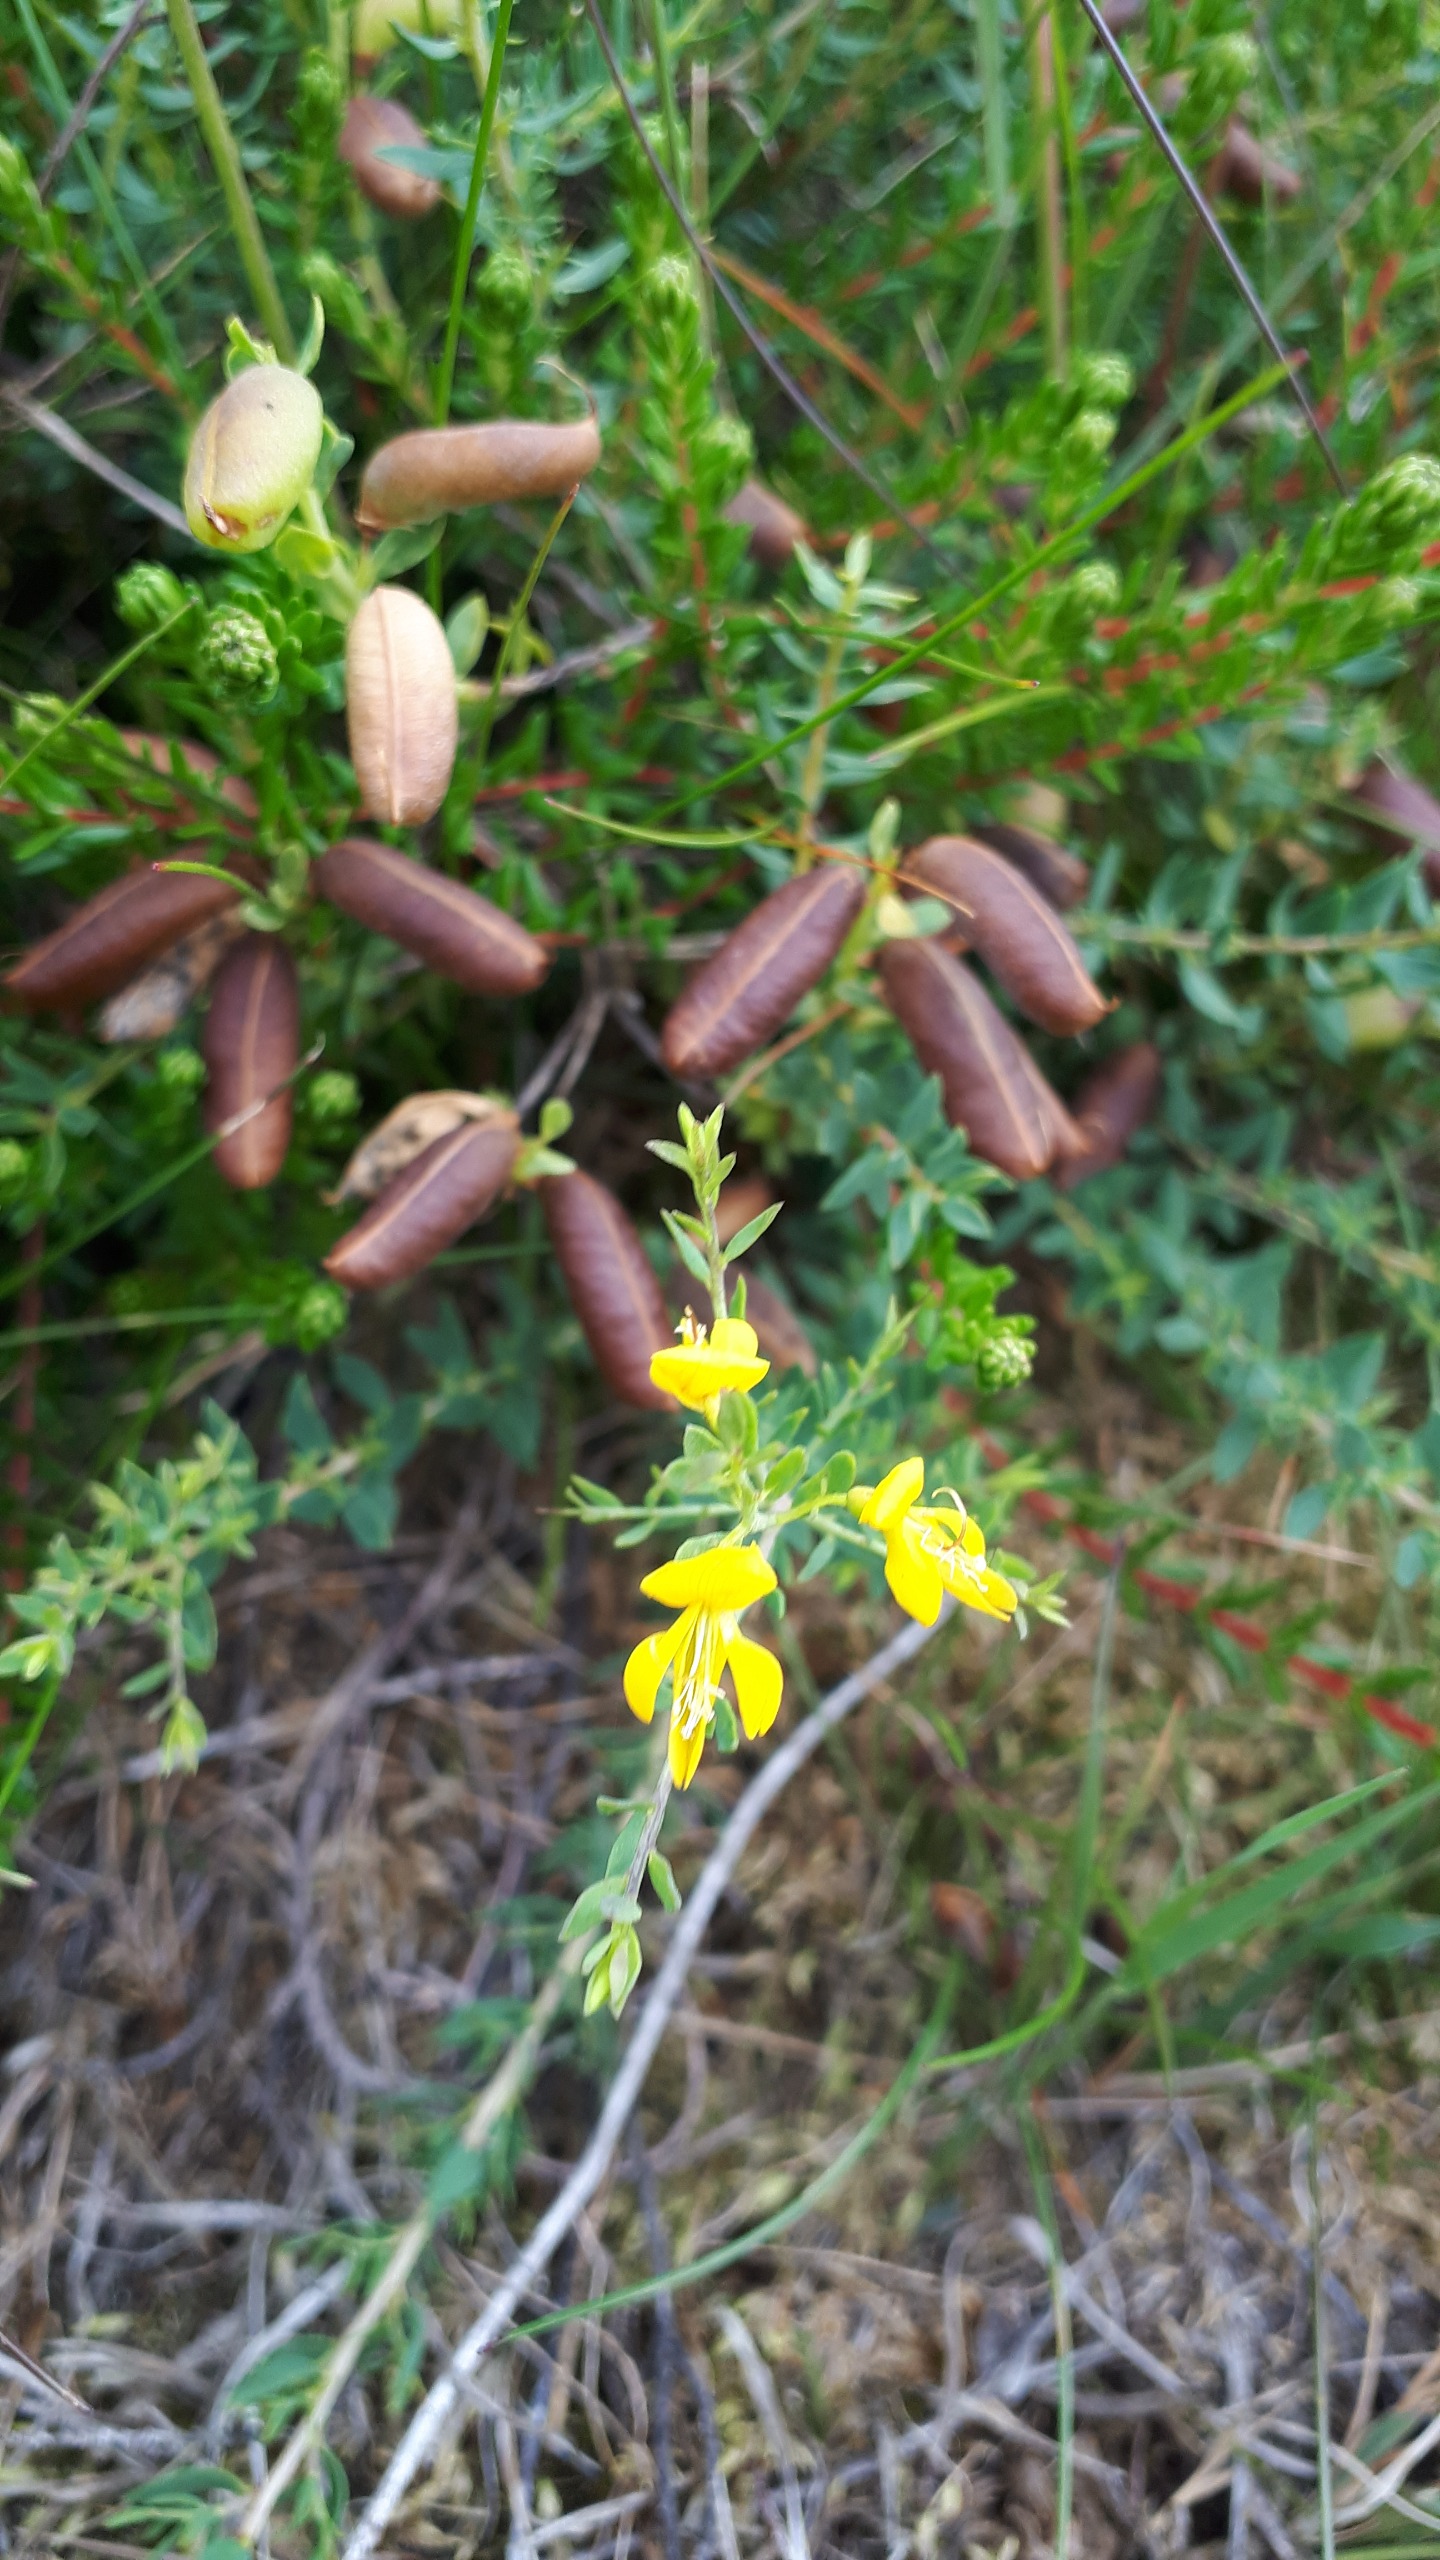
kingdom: Plantae
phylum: Tracheophyta
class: Magnoliopsida
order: Fabales
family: Fabaceae
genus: Genista
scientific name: Genista anglica
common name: Engelsk visse
